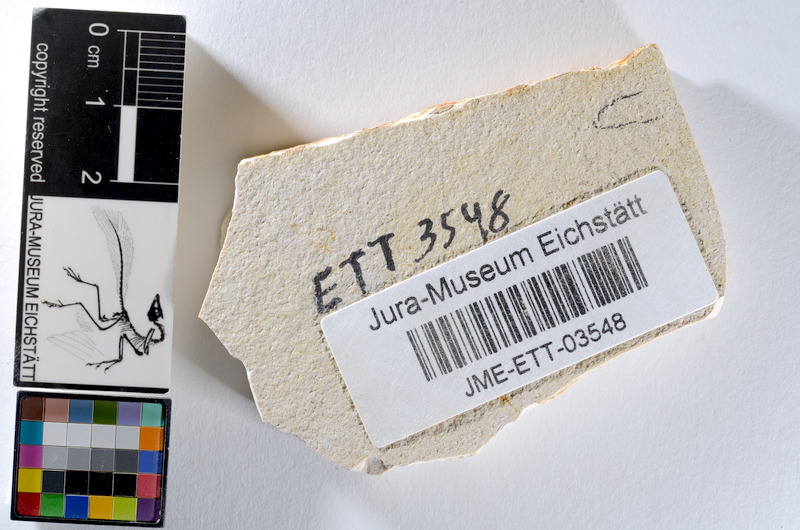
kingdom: Animalia
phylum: Chordata
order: Salmoniformes
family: Orthogonikleithridae
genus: Orthogonikleithrus
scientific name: Orthogonikleithrus hoelli
